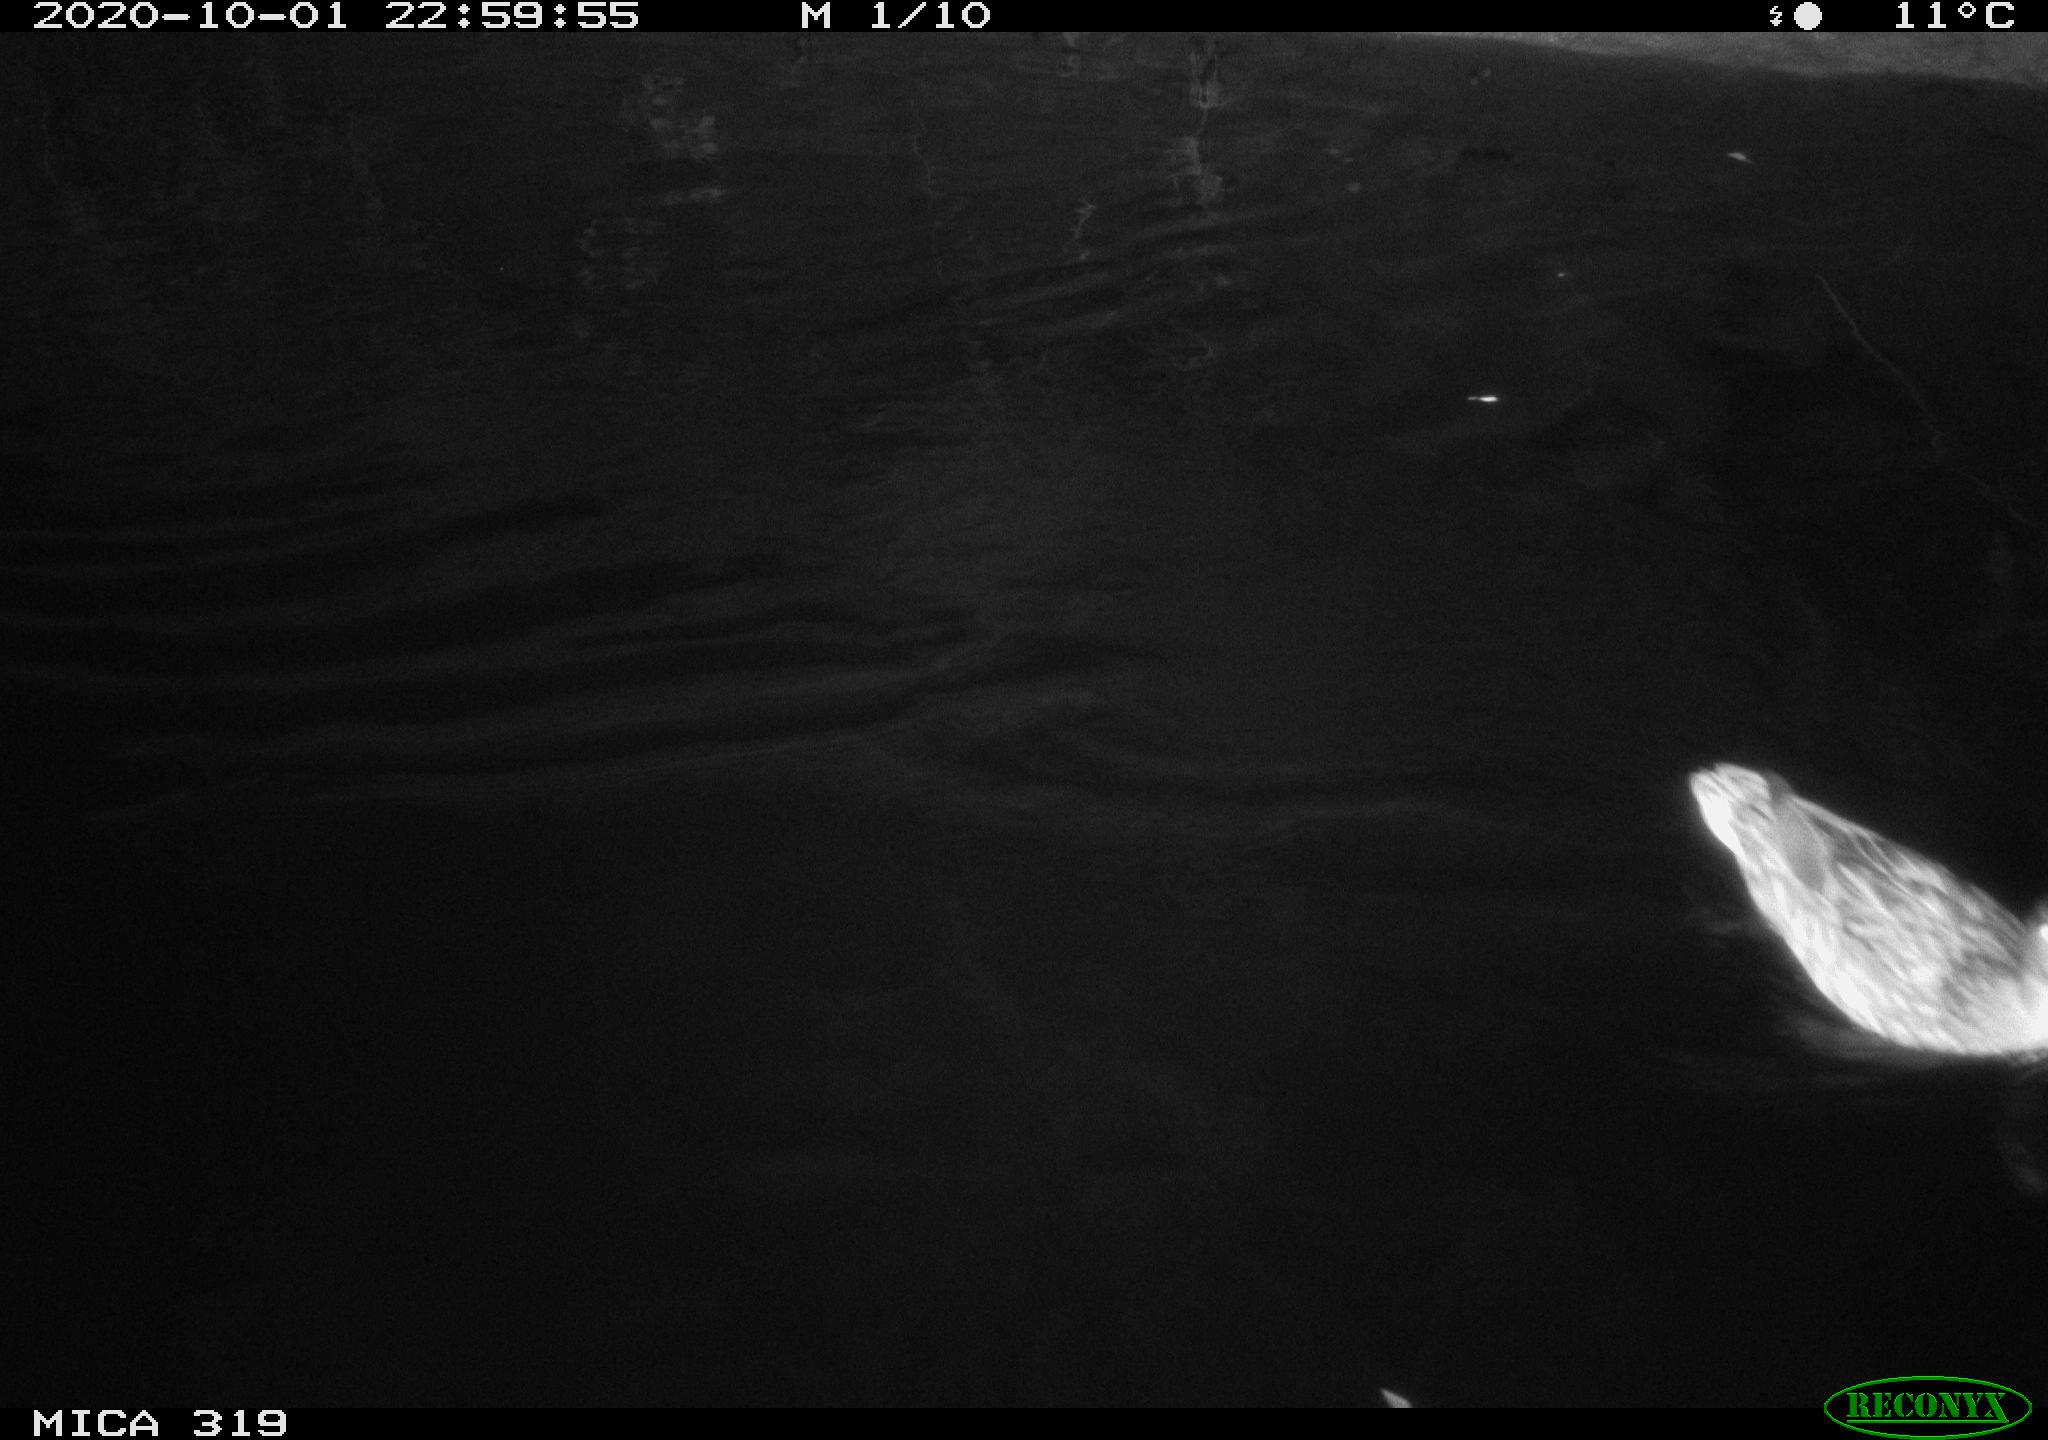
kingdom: Animalia
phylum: Chordata
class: Aves
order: Anseriformes
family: Anatidae
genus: Anas
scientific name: Anas platyrhynchos
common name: Mallard
